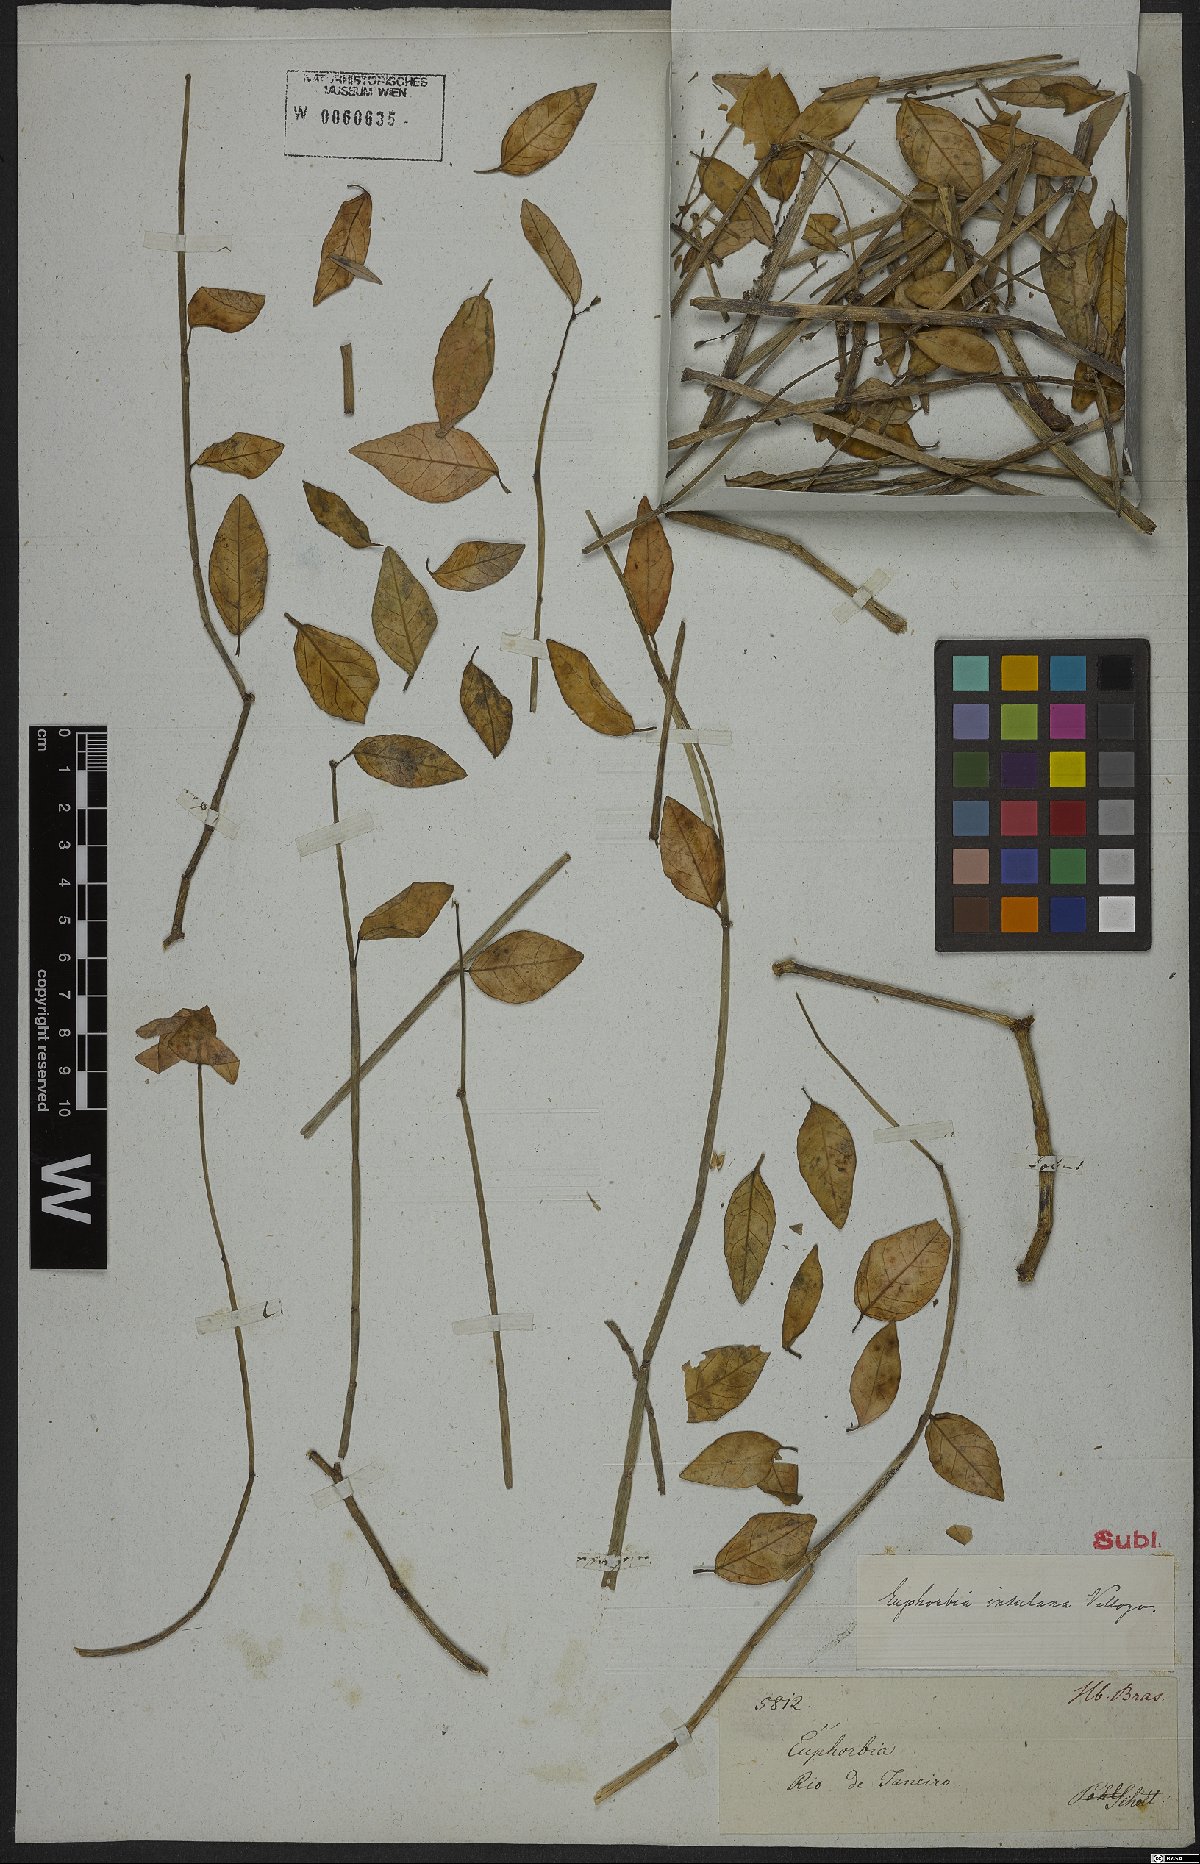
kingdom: Plantae
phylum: Tracheophyta
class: Magnoliopsida
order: Malpighiales
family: Euphorbiaceae
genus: Euphorbia
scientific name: Euphorbia glanduligera
